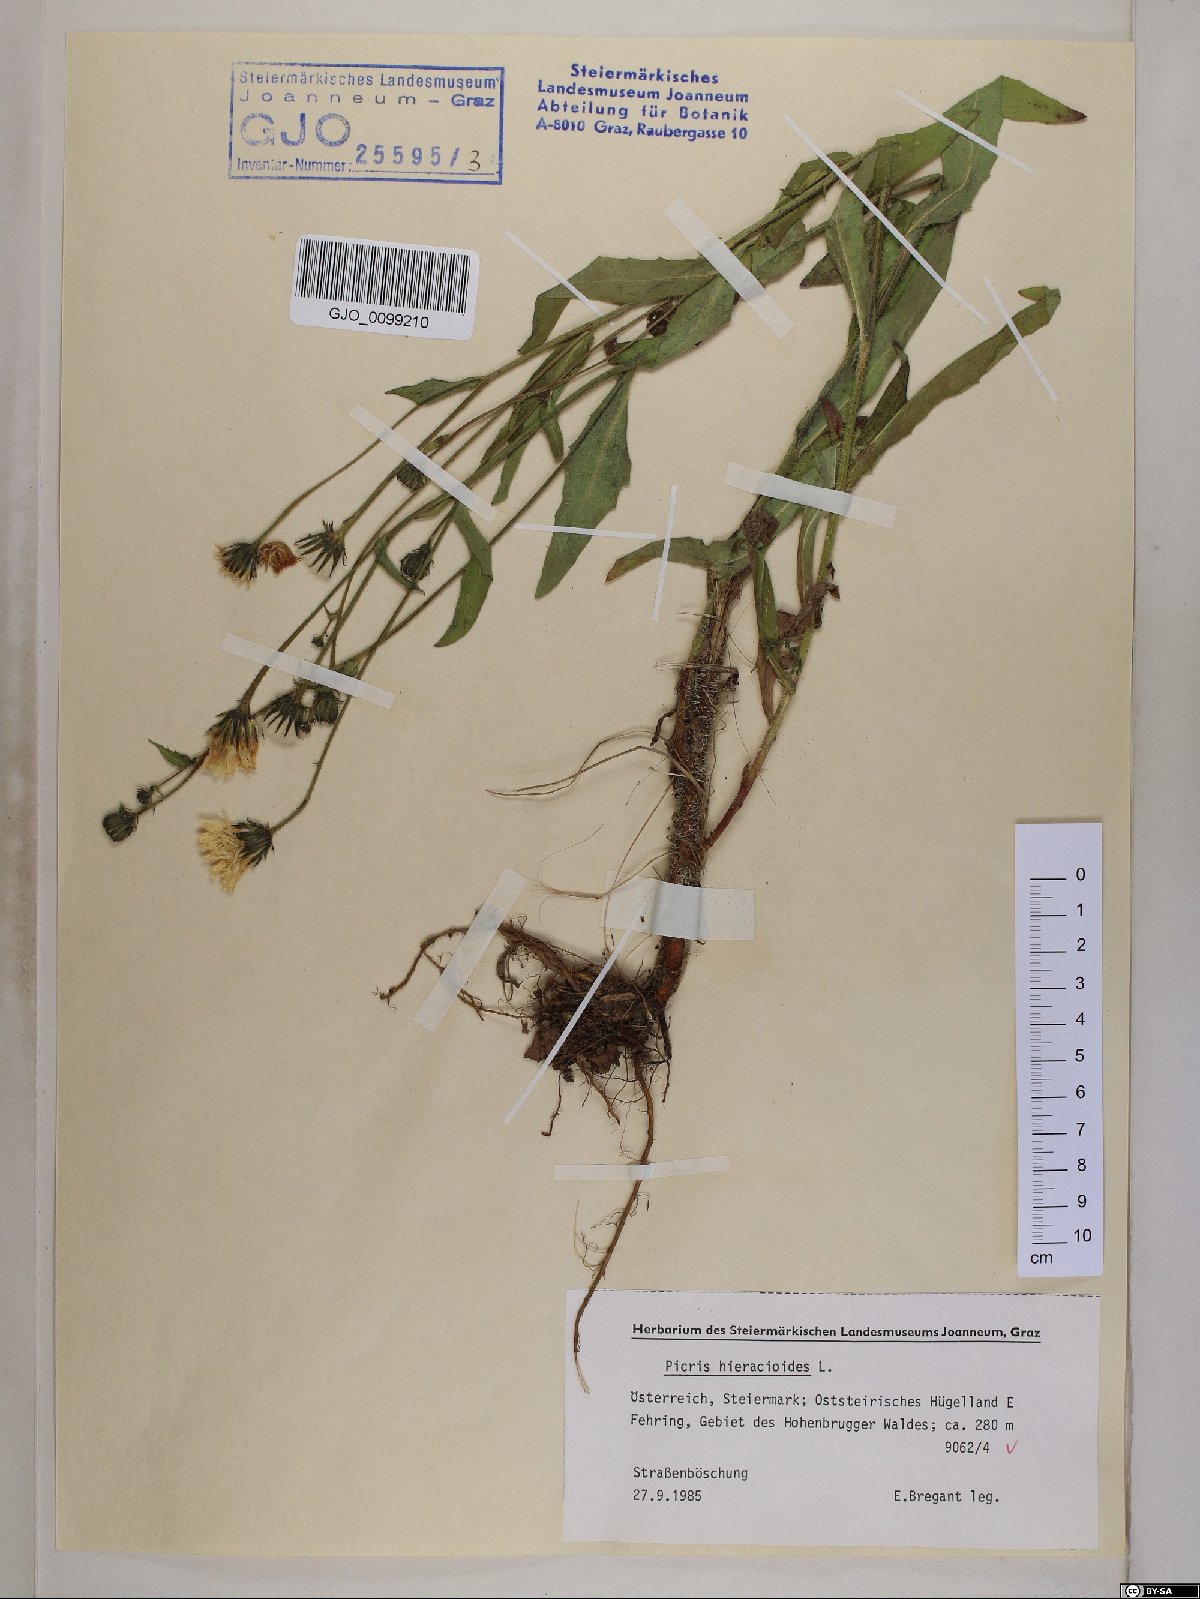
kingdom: Plantae
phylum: Tracheophyta
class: Magnoliopsida
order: Asterales
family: Asteraceae
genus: Picris
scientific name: Picris hieracioides
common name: Hawkweed oxtongue
